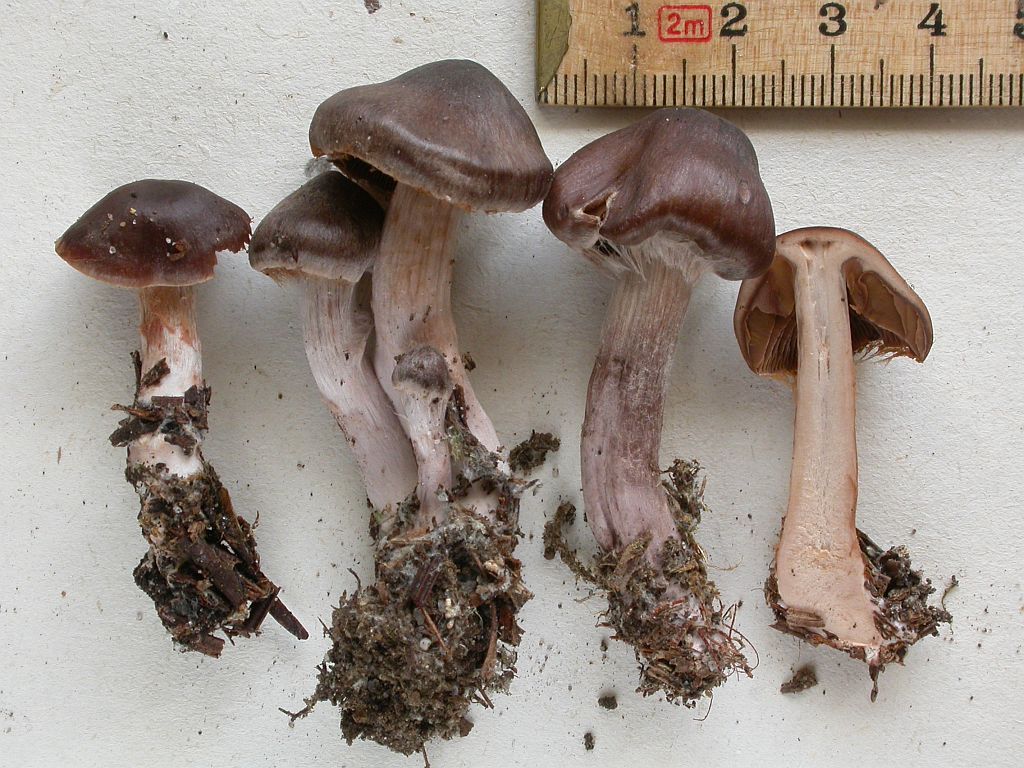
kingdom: Fungi
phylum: Basidiomycota
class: Agaricomycetes
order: Agaricales
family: Cortinariaceae
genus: Cortinarius
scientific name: Cortinarius vernus
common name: sommer-slørhat
